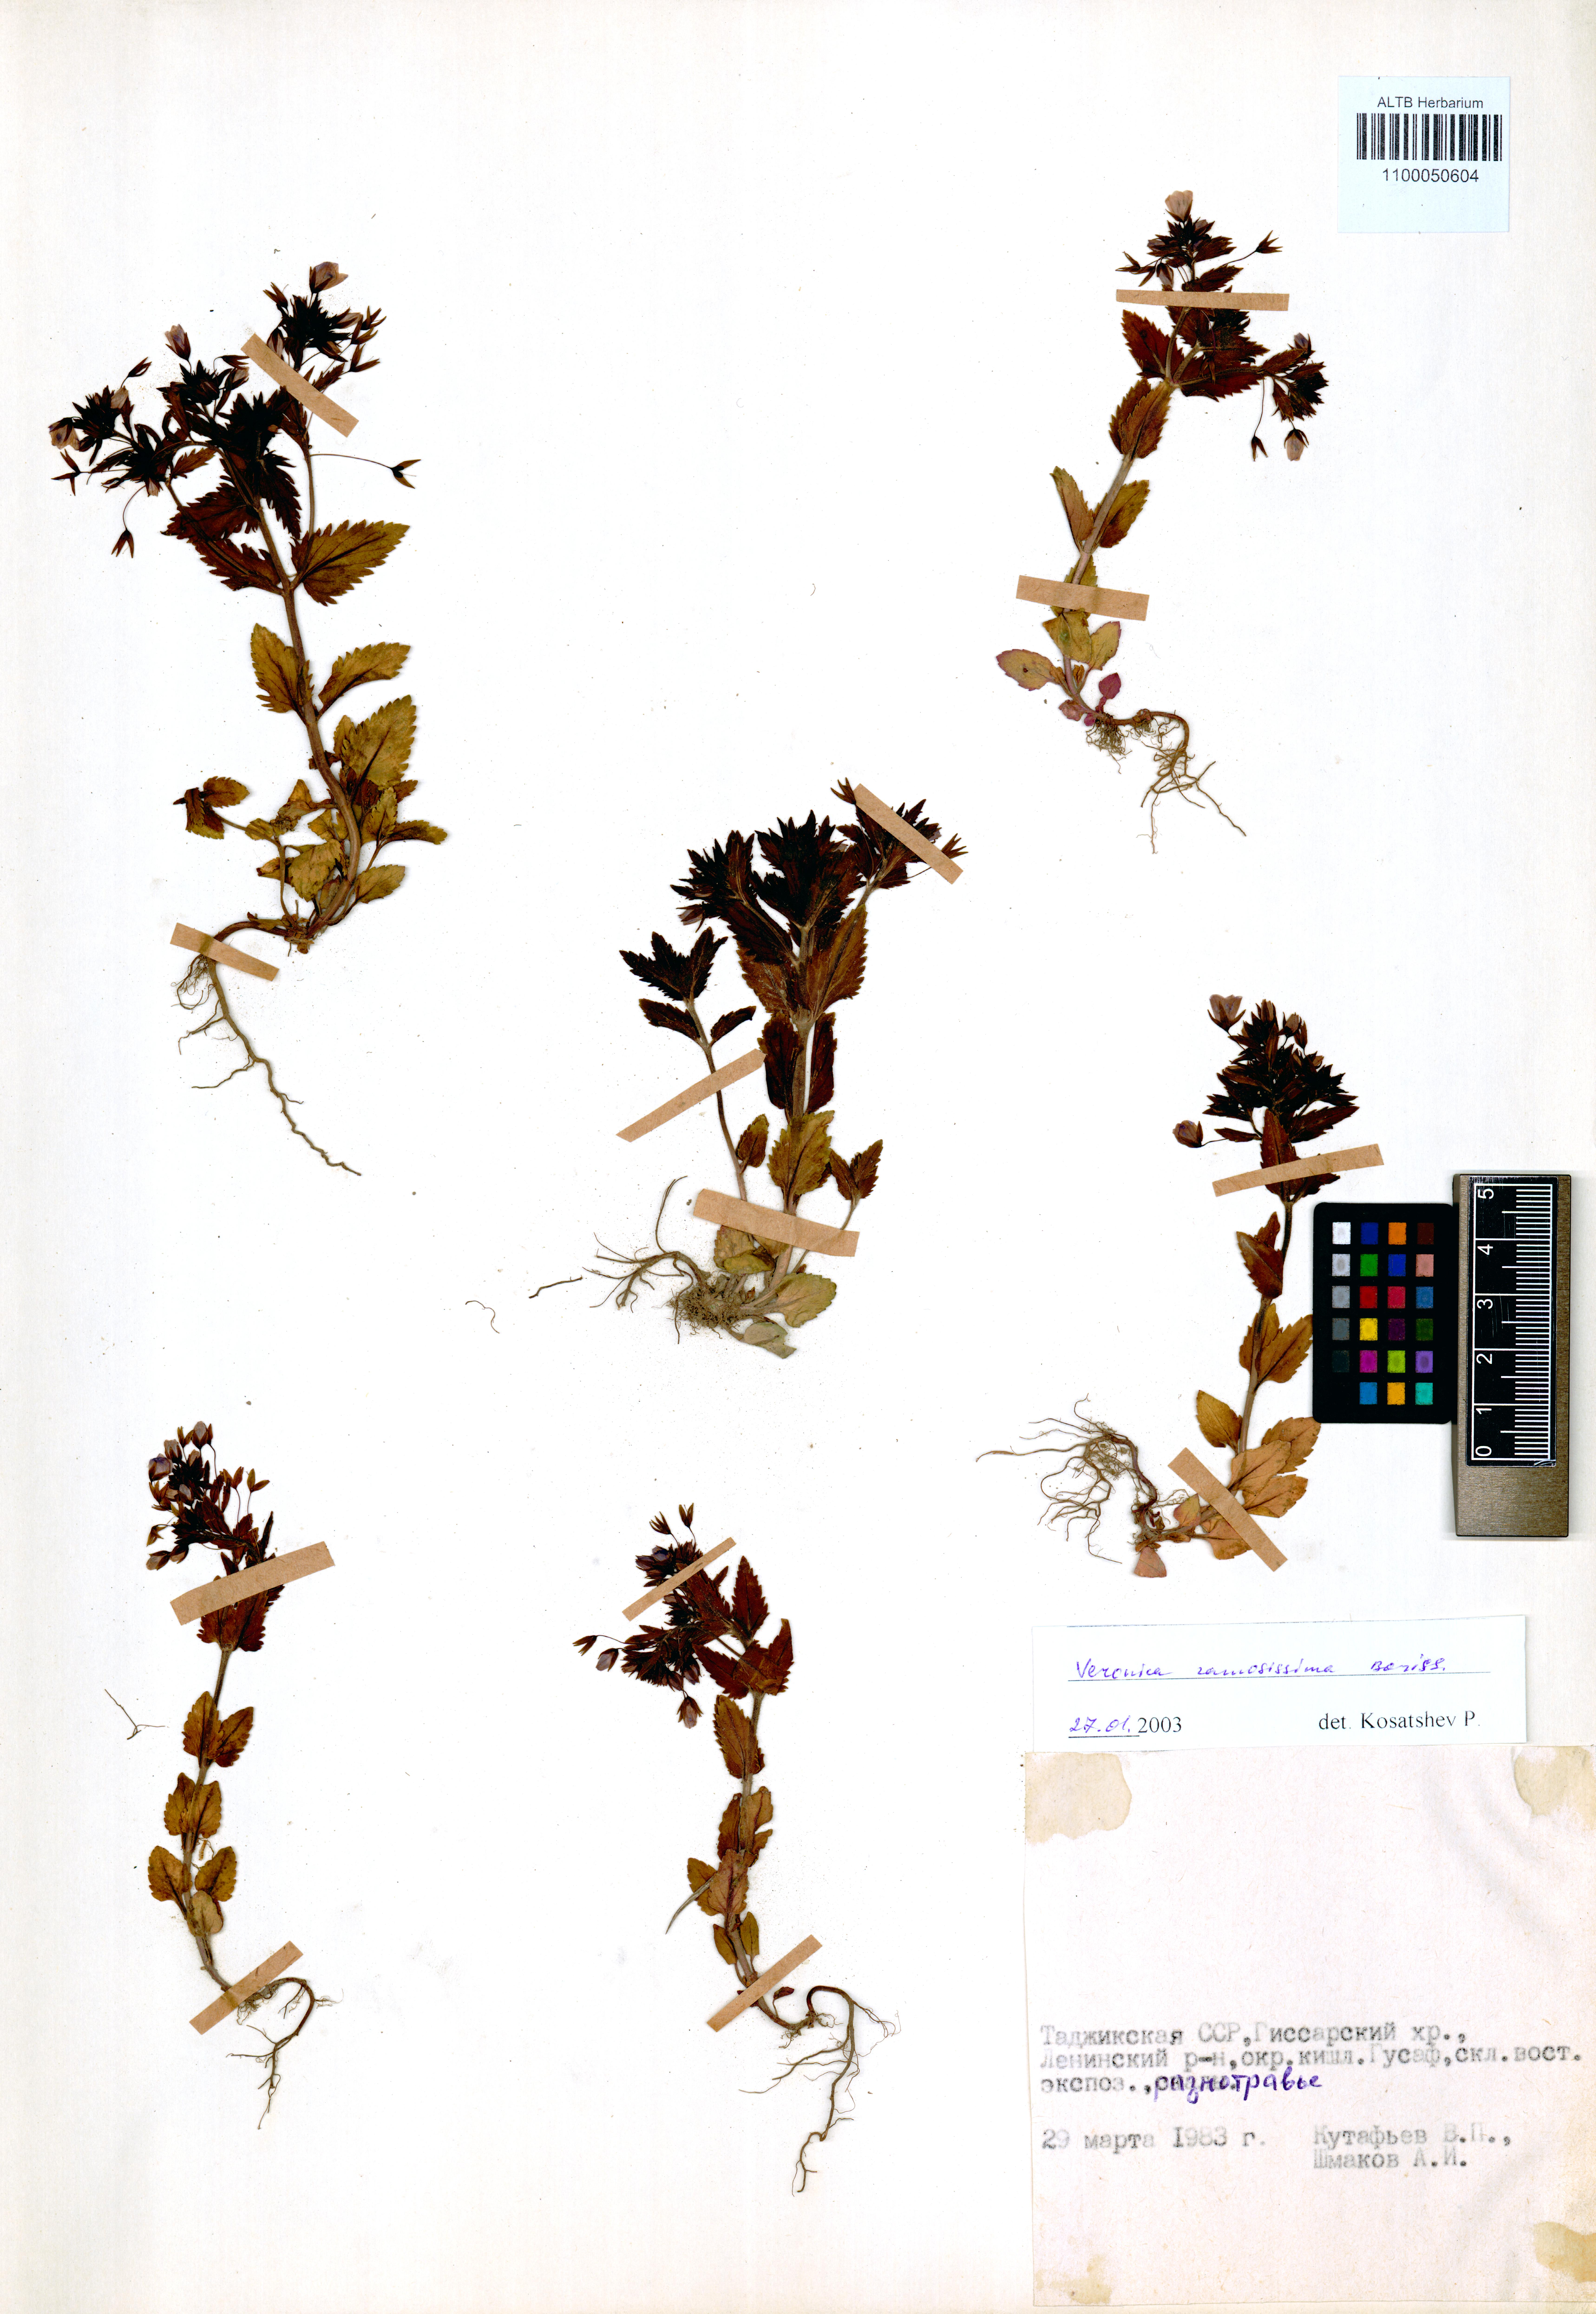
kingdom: Plantae
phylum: Tracheophyta
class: Magnoliopsida
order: Lamiales
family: Plantaginaceae
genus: Veronica
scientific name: Veronica ramosissima
